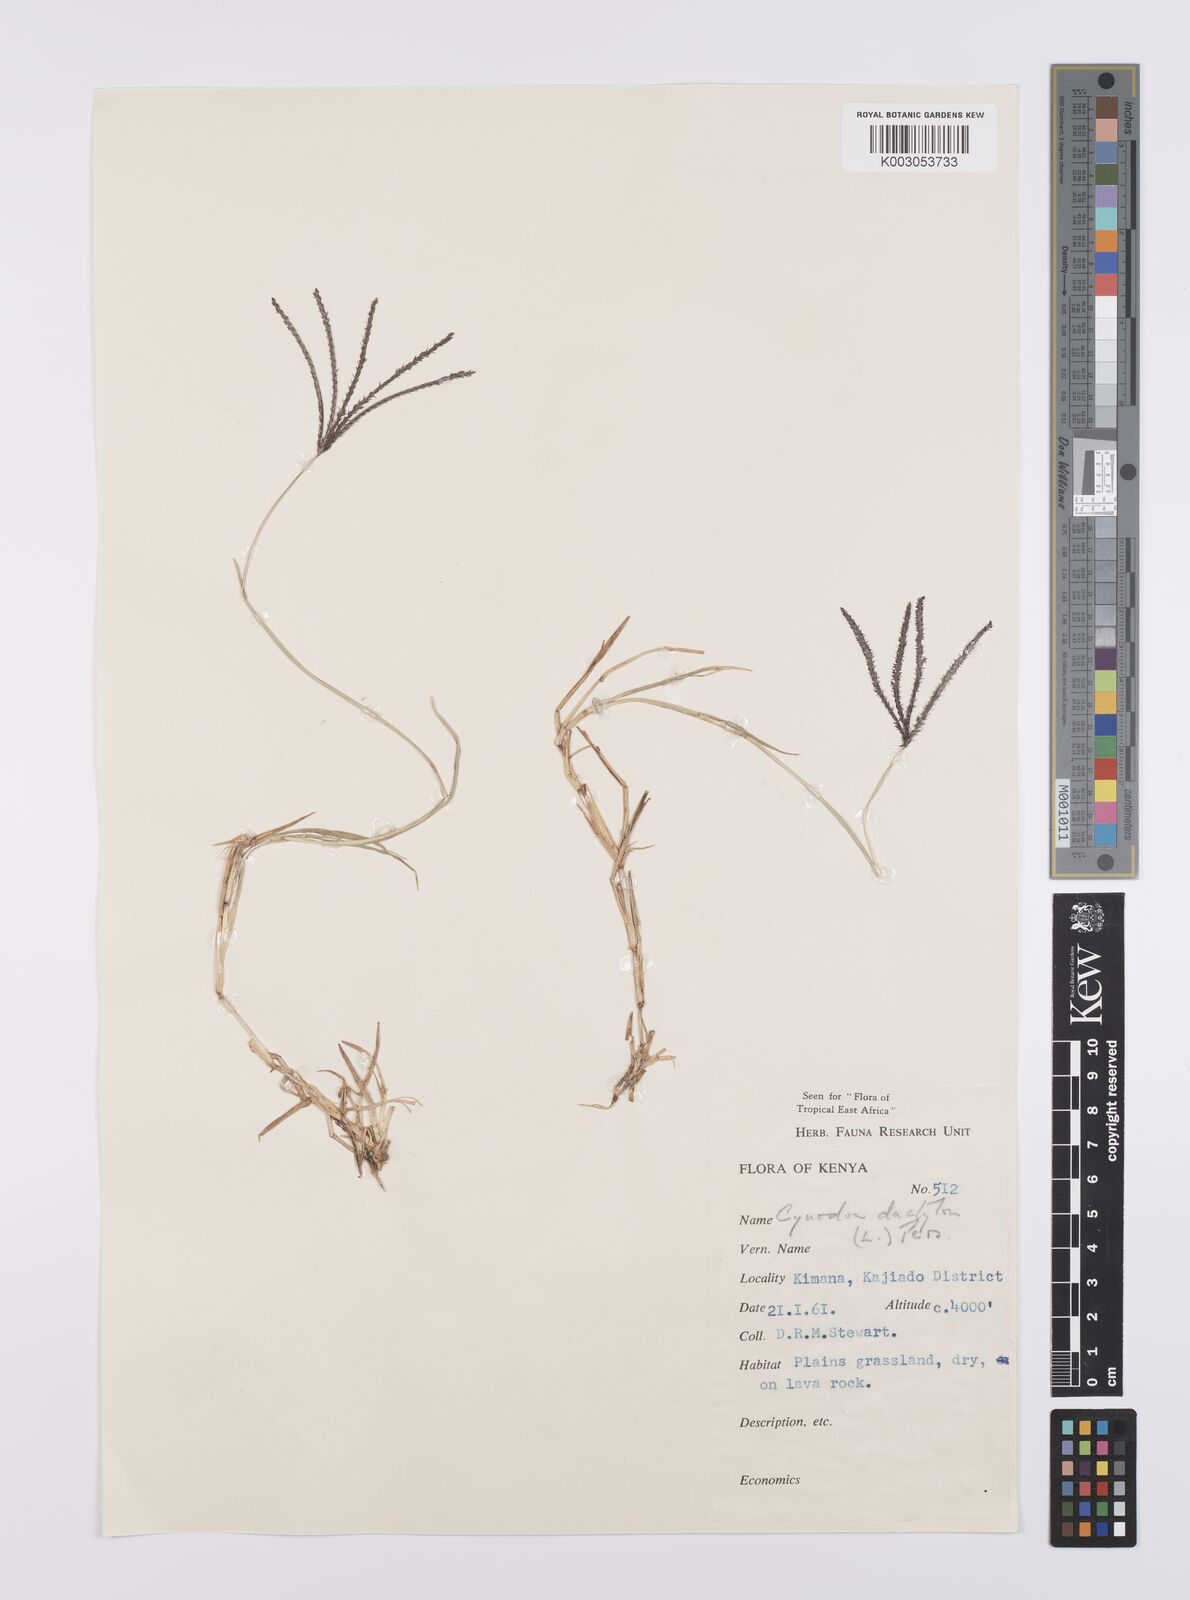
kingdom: Plantae
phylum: Tracheophyta
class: Liliopsida
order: Poales
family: Poaceae
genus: Cynodon
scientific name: Cynodon dactylon
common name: Bermuda grass
